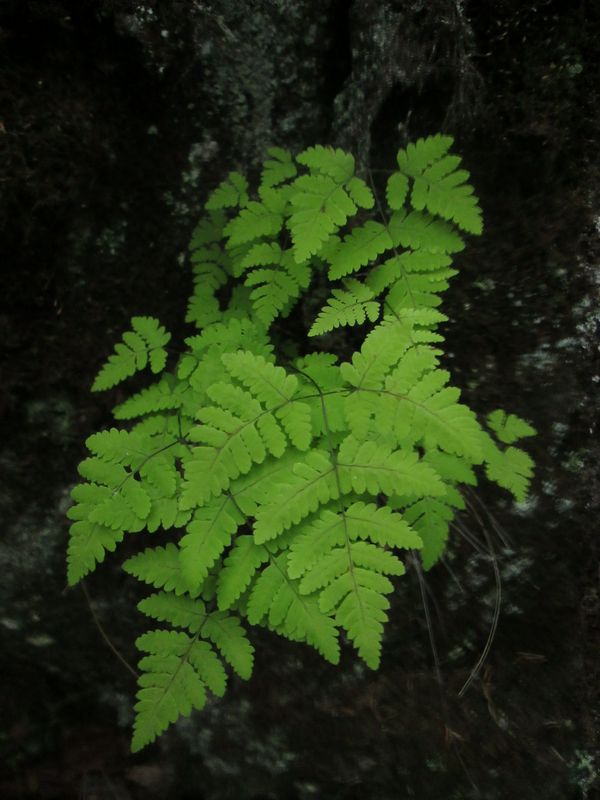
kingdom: Plantae
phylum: Tracheophyta
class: Polypodiopsida
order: Polypodiales
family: Cystopteridaceae
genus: Gymnocarpium
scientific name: Gymnocarpium dryopteris
